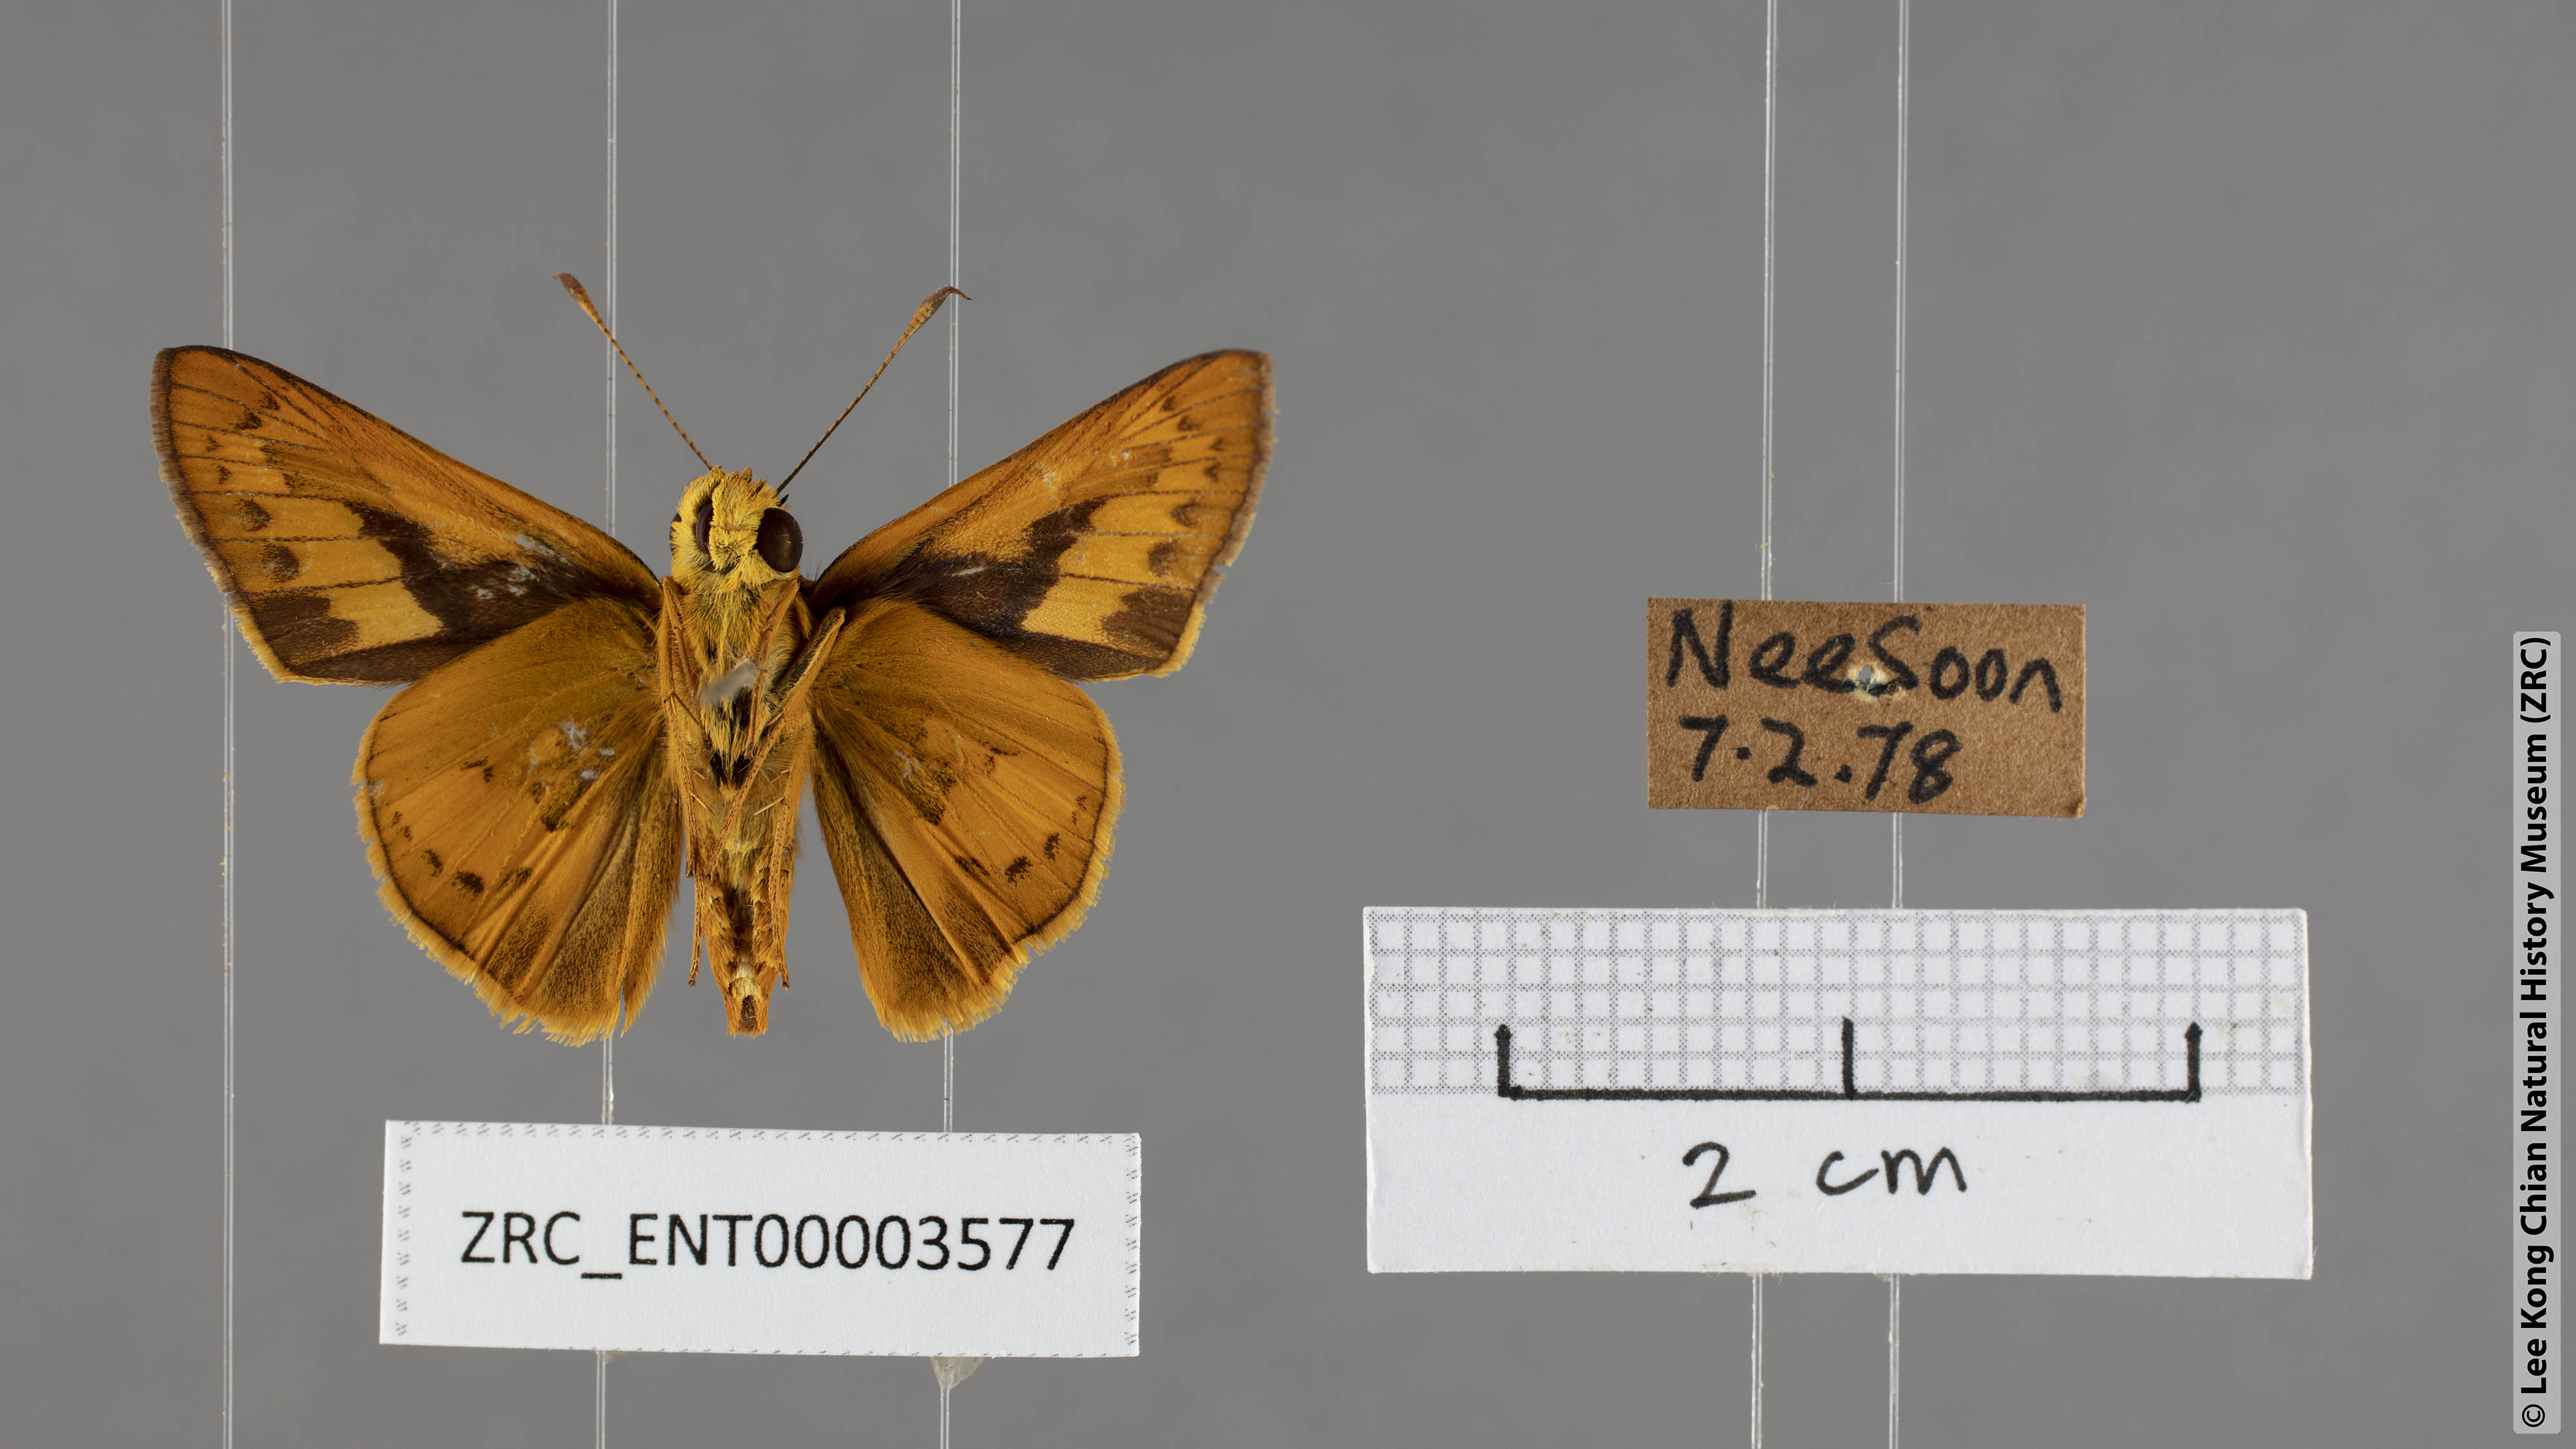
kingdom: Animalia
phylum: Arthropoda
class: Insecta
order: Lepidoptera
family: Hesperiidae
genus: Telicota
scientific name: Telicota augias
